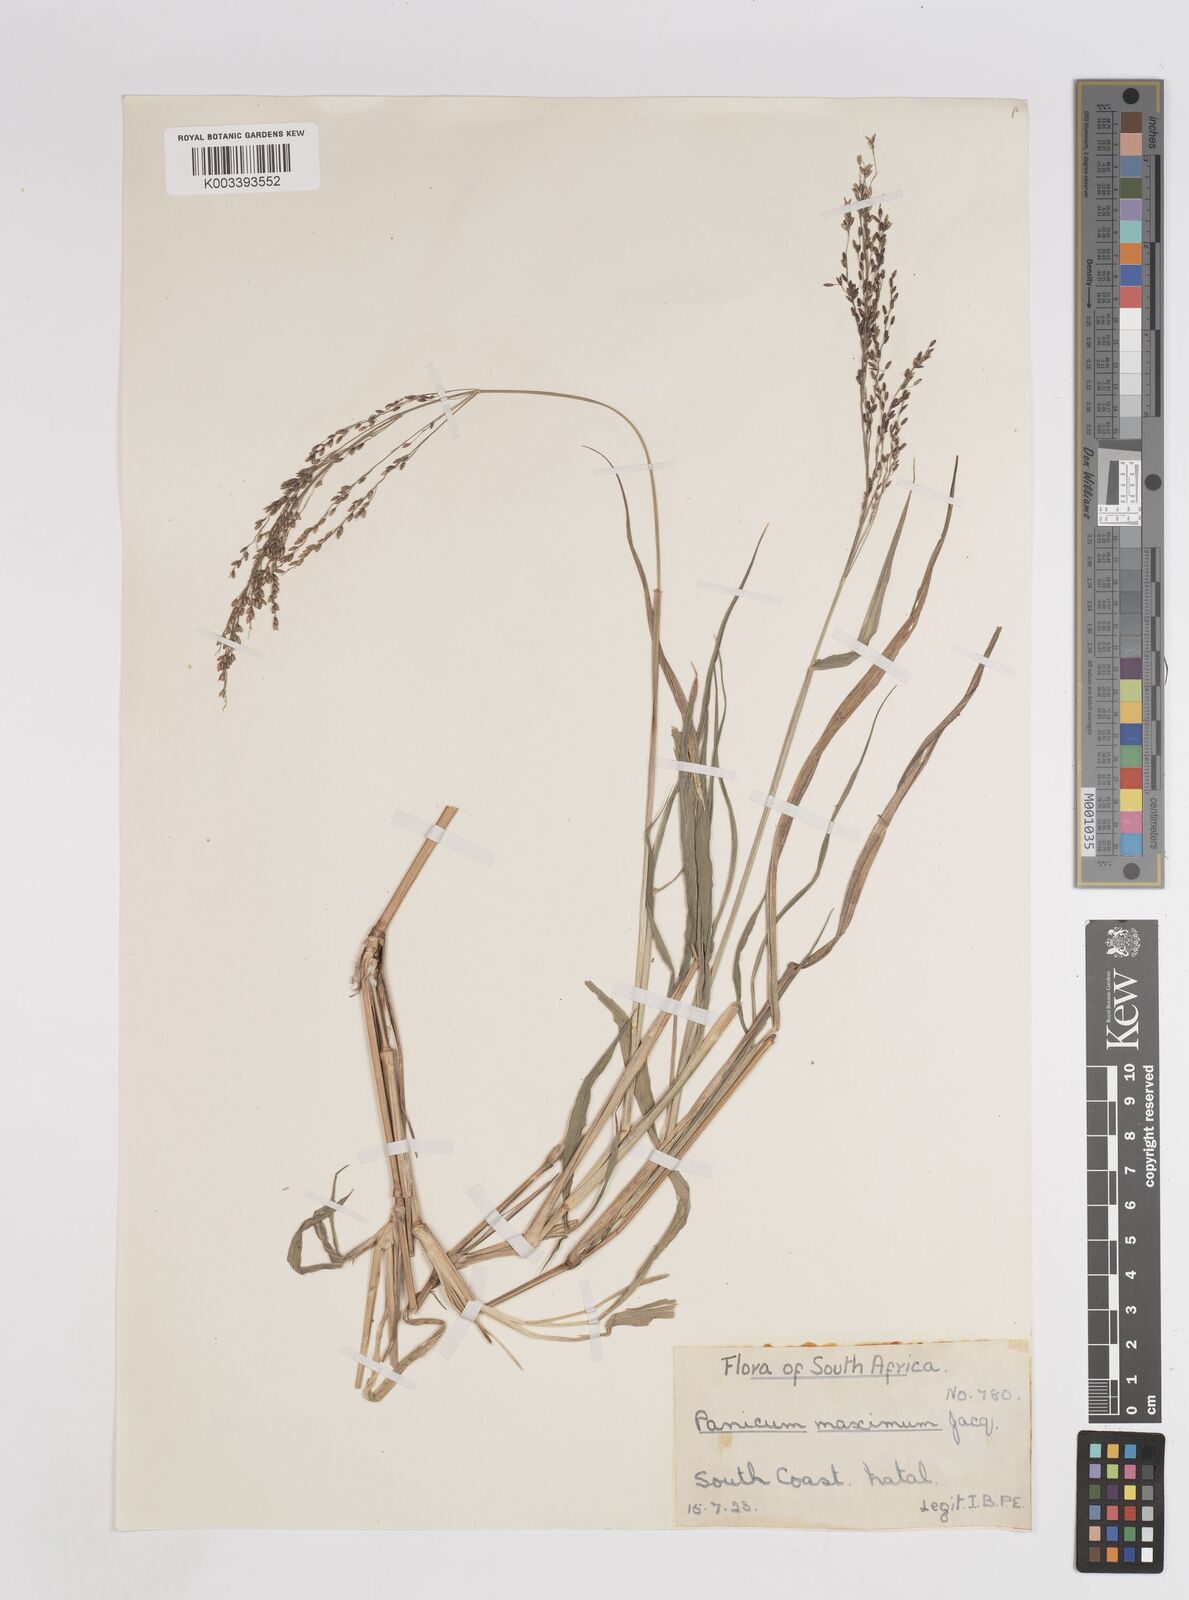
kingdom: Plantae
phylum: Tracheophyta
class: Liliopsida
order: Poales
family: Poaceae
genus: Megathyrsus
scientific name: Megathyrsus maximus
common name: Guineagrass
